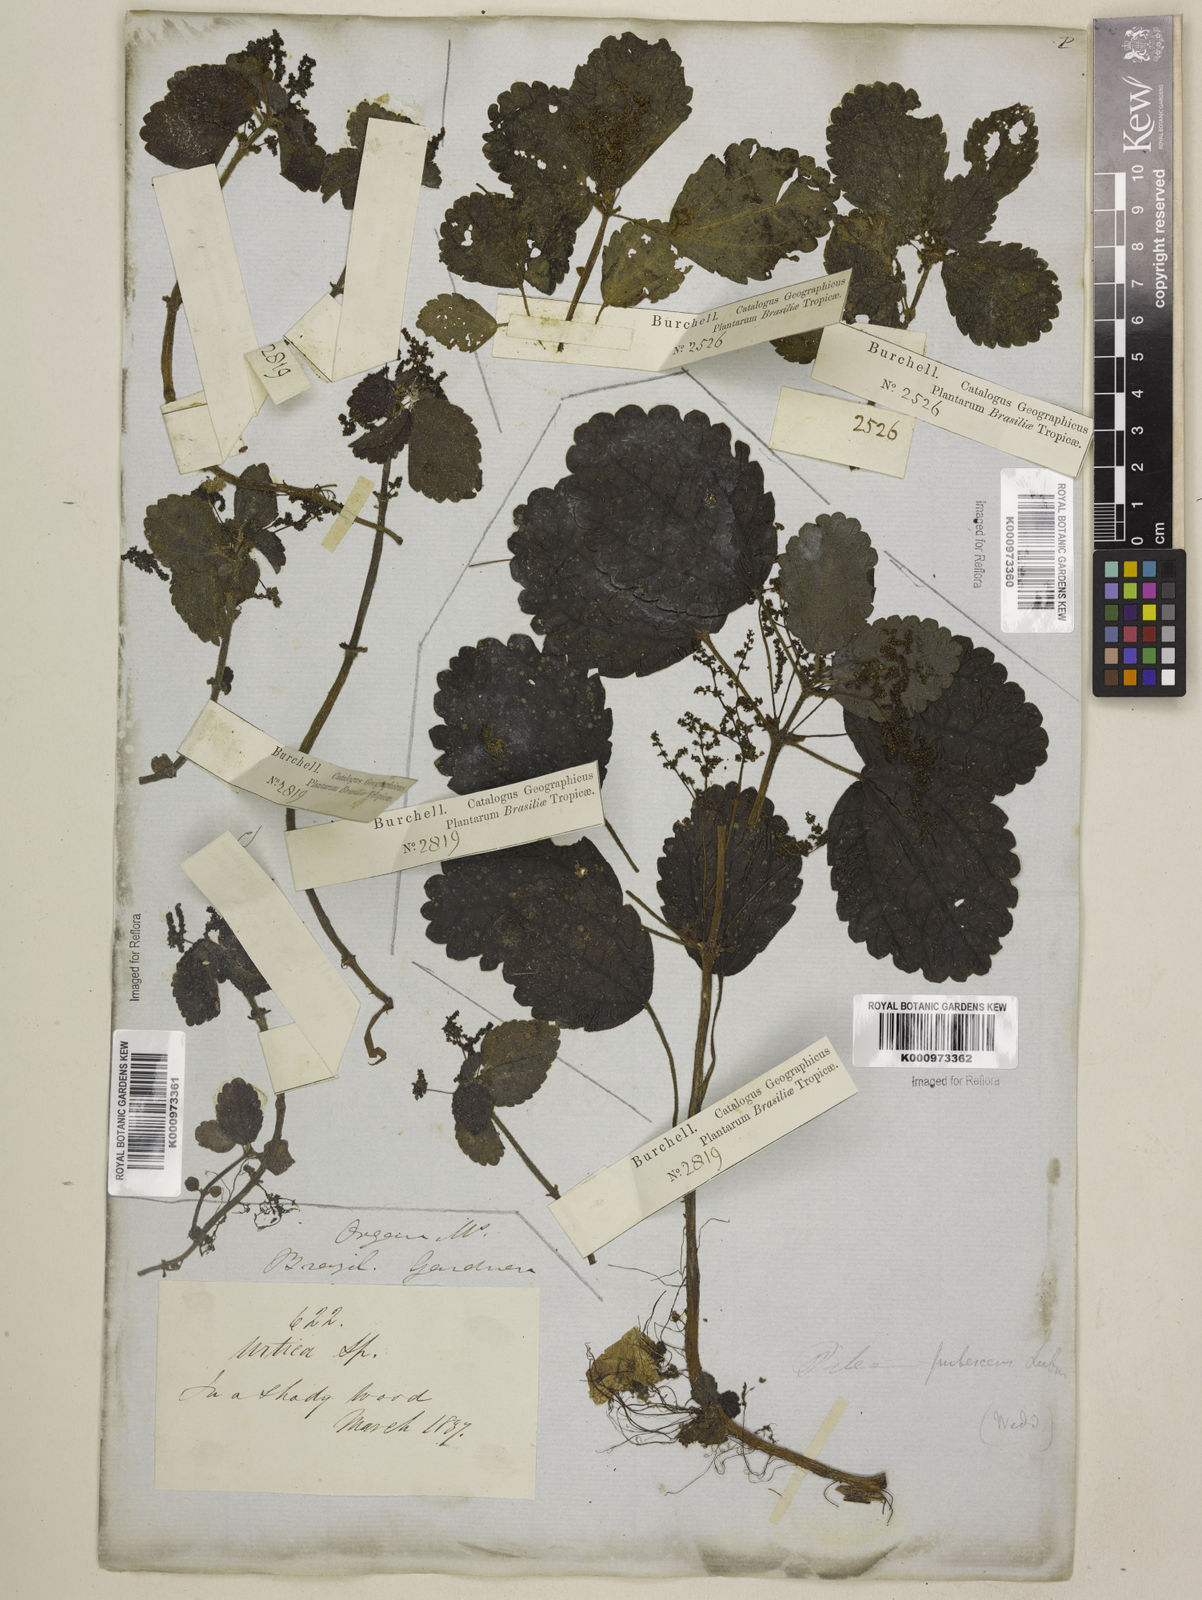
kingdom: Plantae
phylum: Tracheophyta
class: Magnoliopsida
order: Rosales
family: Urticaceae
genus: Pilea
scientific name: Pilea
